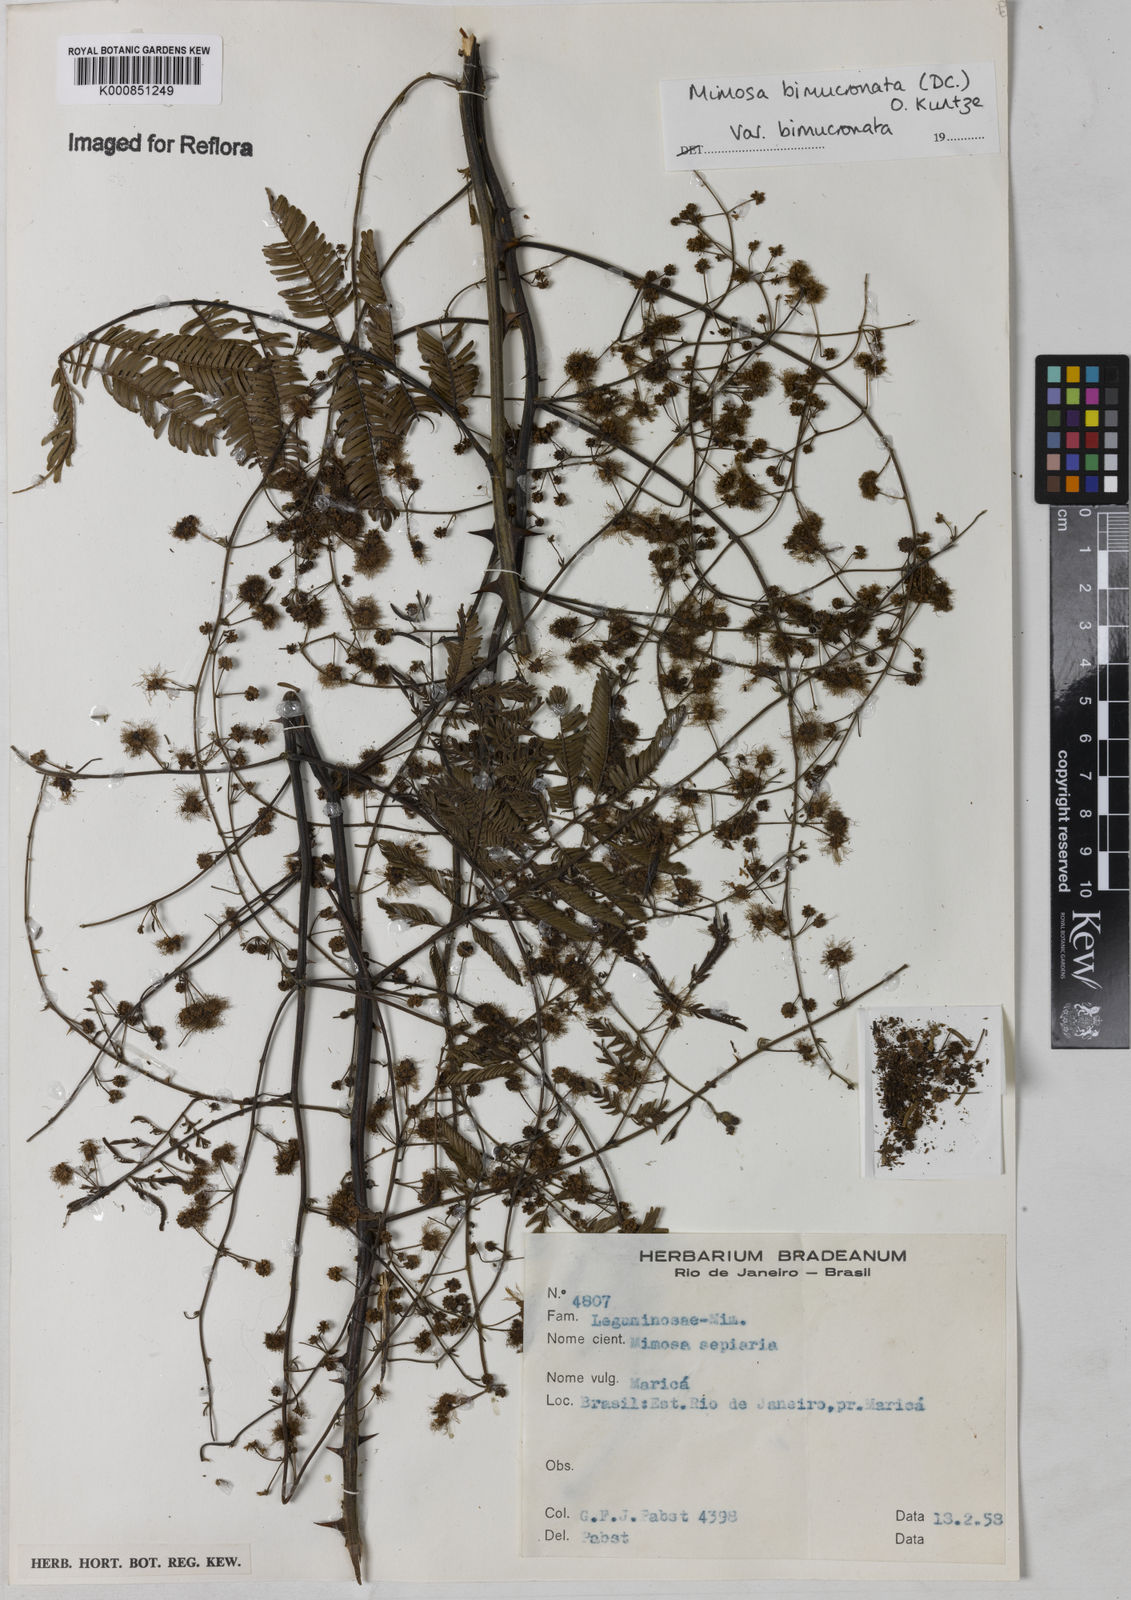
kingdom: Plantae
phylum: Tracheophyta
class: Magnoliopsida
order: Fabales
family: Fabaceae
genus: Mimosa
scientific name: Mimosa bimucronata
